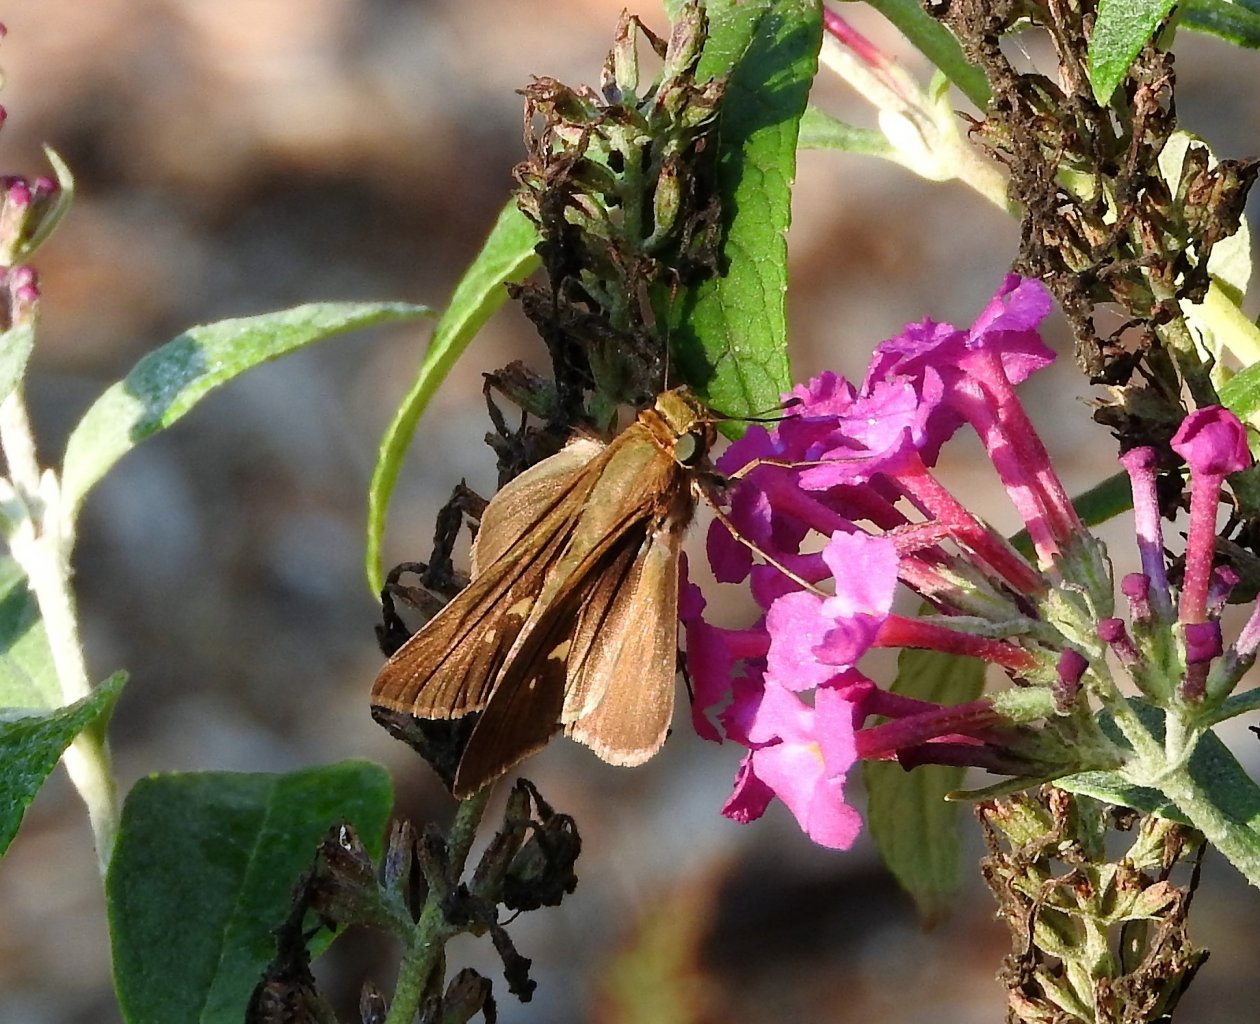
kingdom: Animalia
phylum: Arthropoda
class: Insecta
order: Lepidoptera
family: Hesperiidae
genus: Panoquina
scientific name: Panoquina ocola
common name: Ocola Skipper
